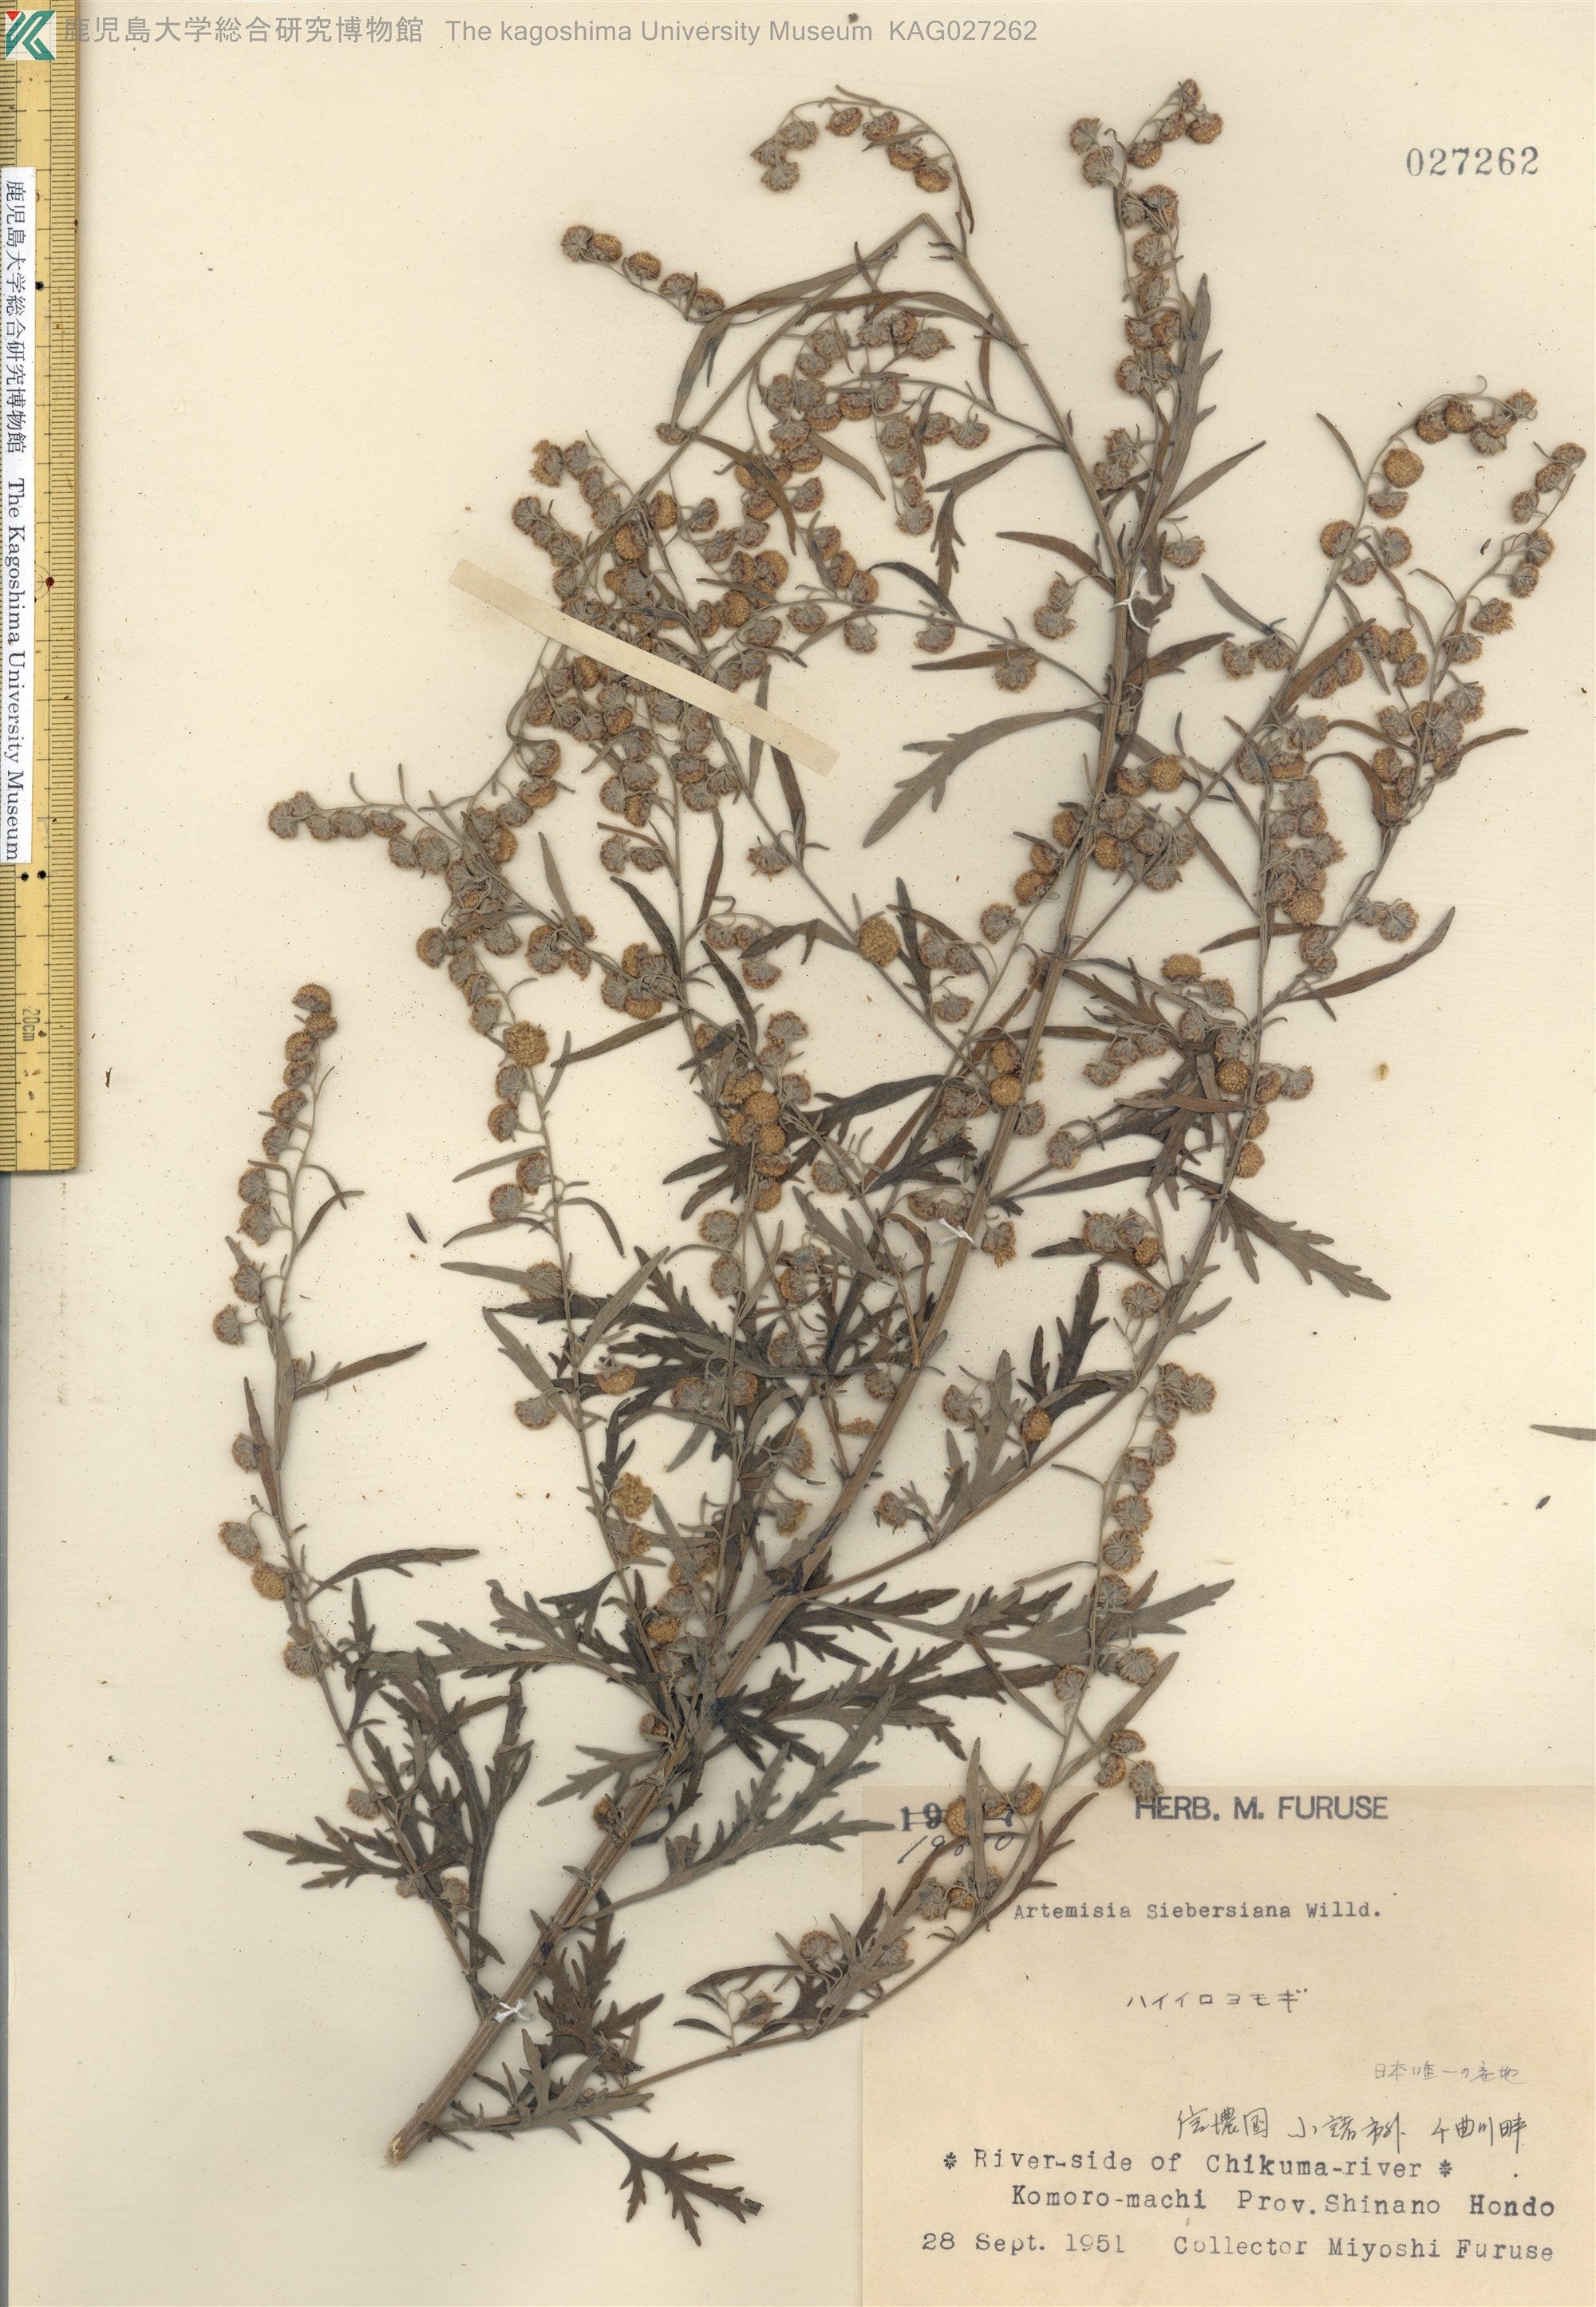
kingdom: Plantae
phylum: Tracheophyta
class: Magnoliopsida
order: Asterales
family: Asteraceae
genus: Artemisia
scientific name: Artemisia sieversiana
